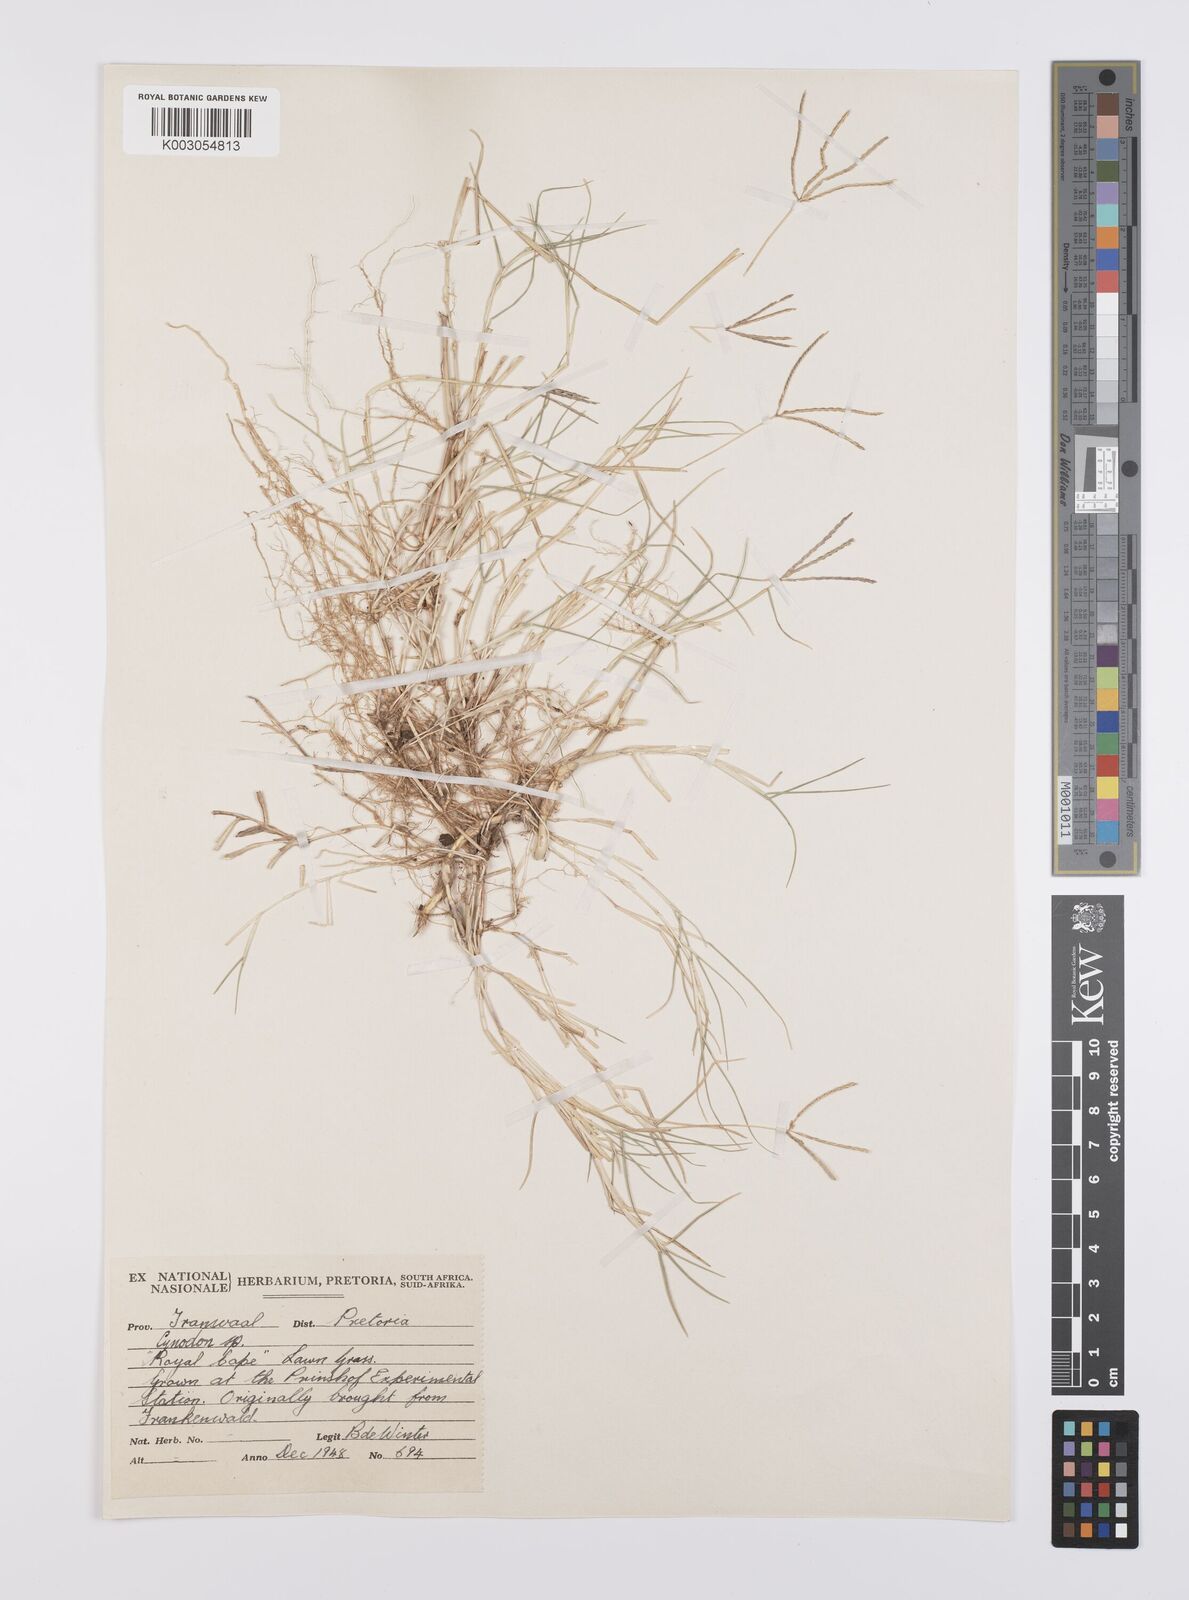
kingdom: Plantae
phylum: Tracheophyta
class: Liliopsida
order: Poales
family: Poaceae
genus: Cynodon
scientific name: Cynodon dactylon
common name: Bermuda grass
